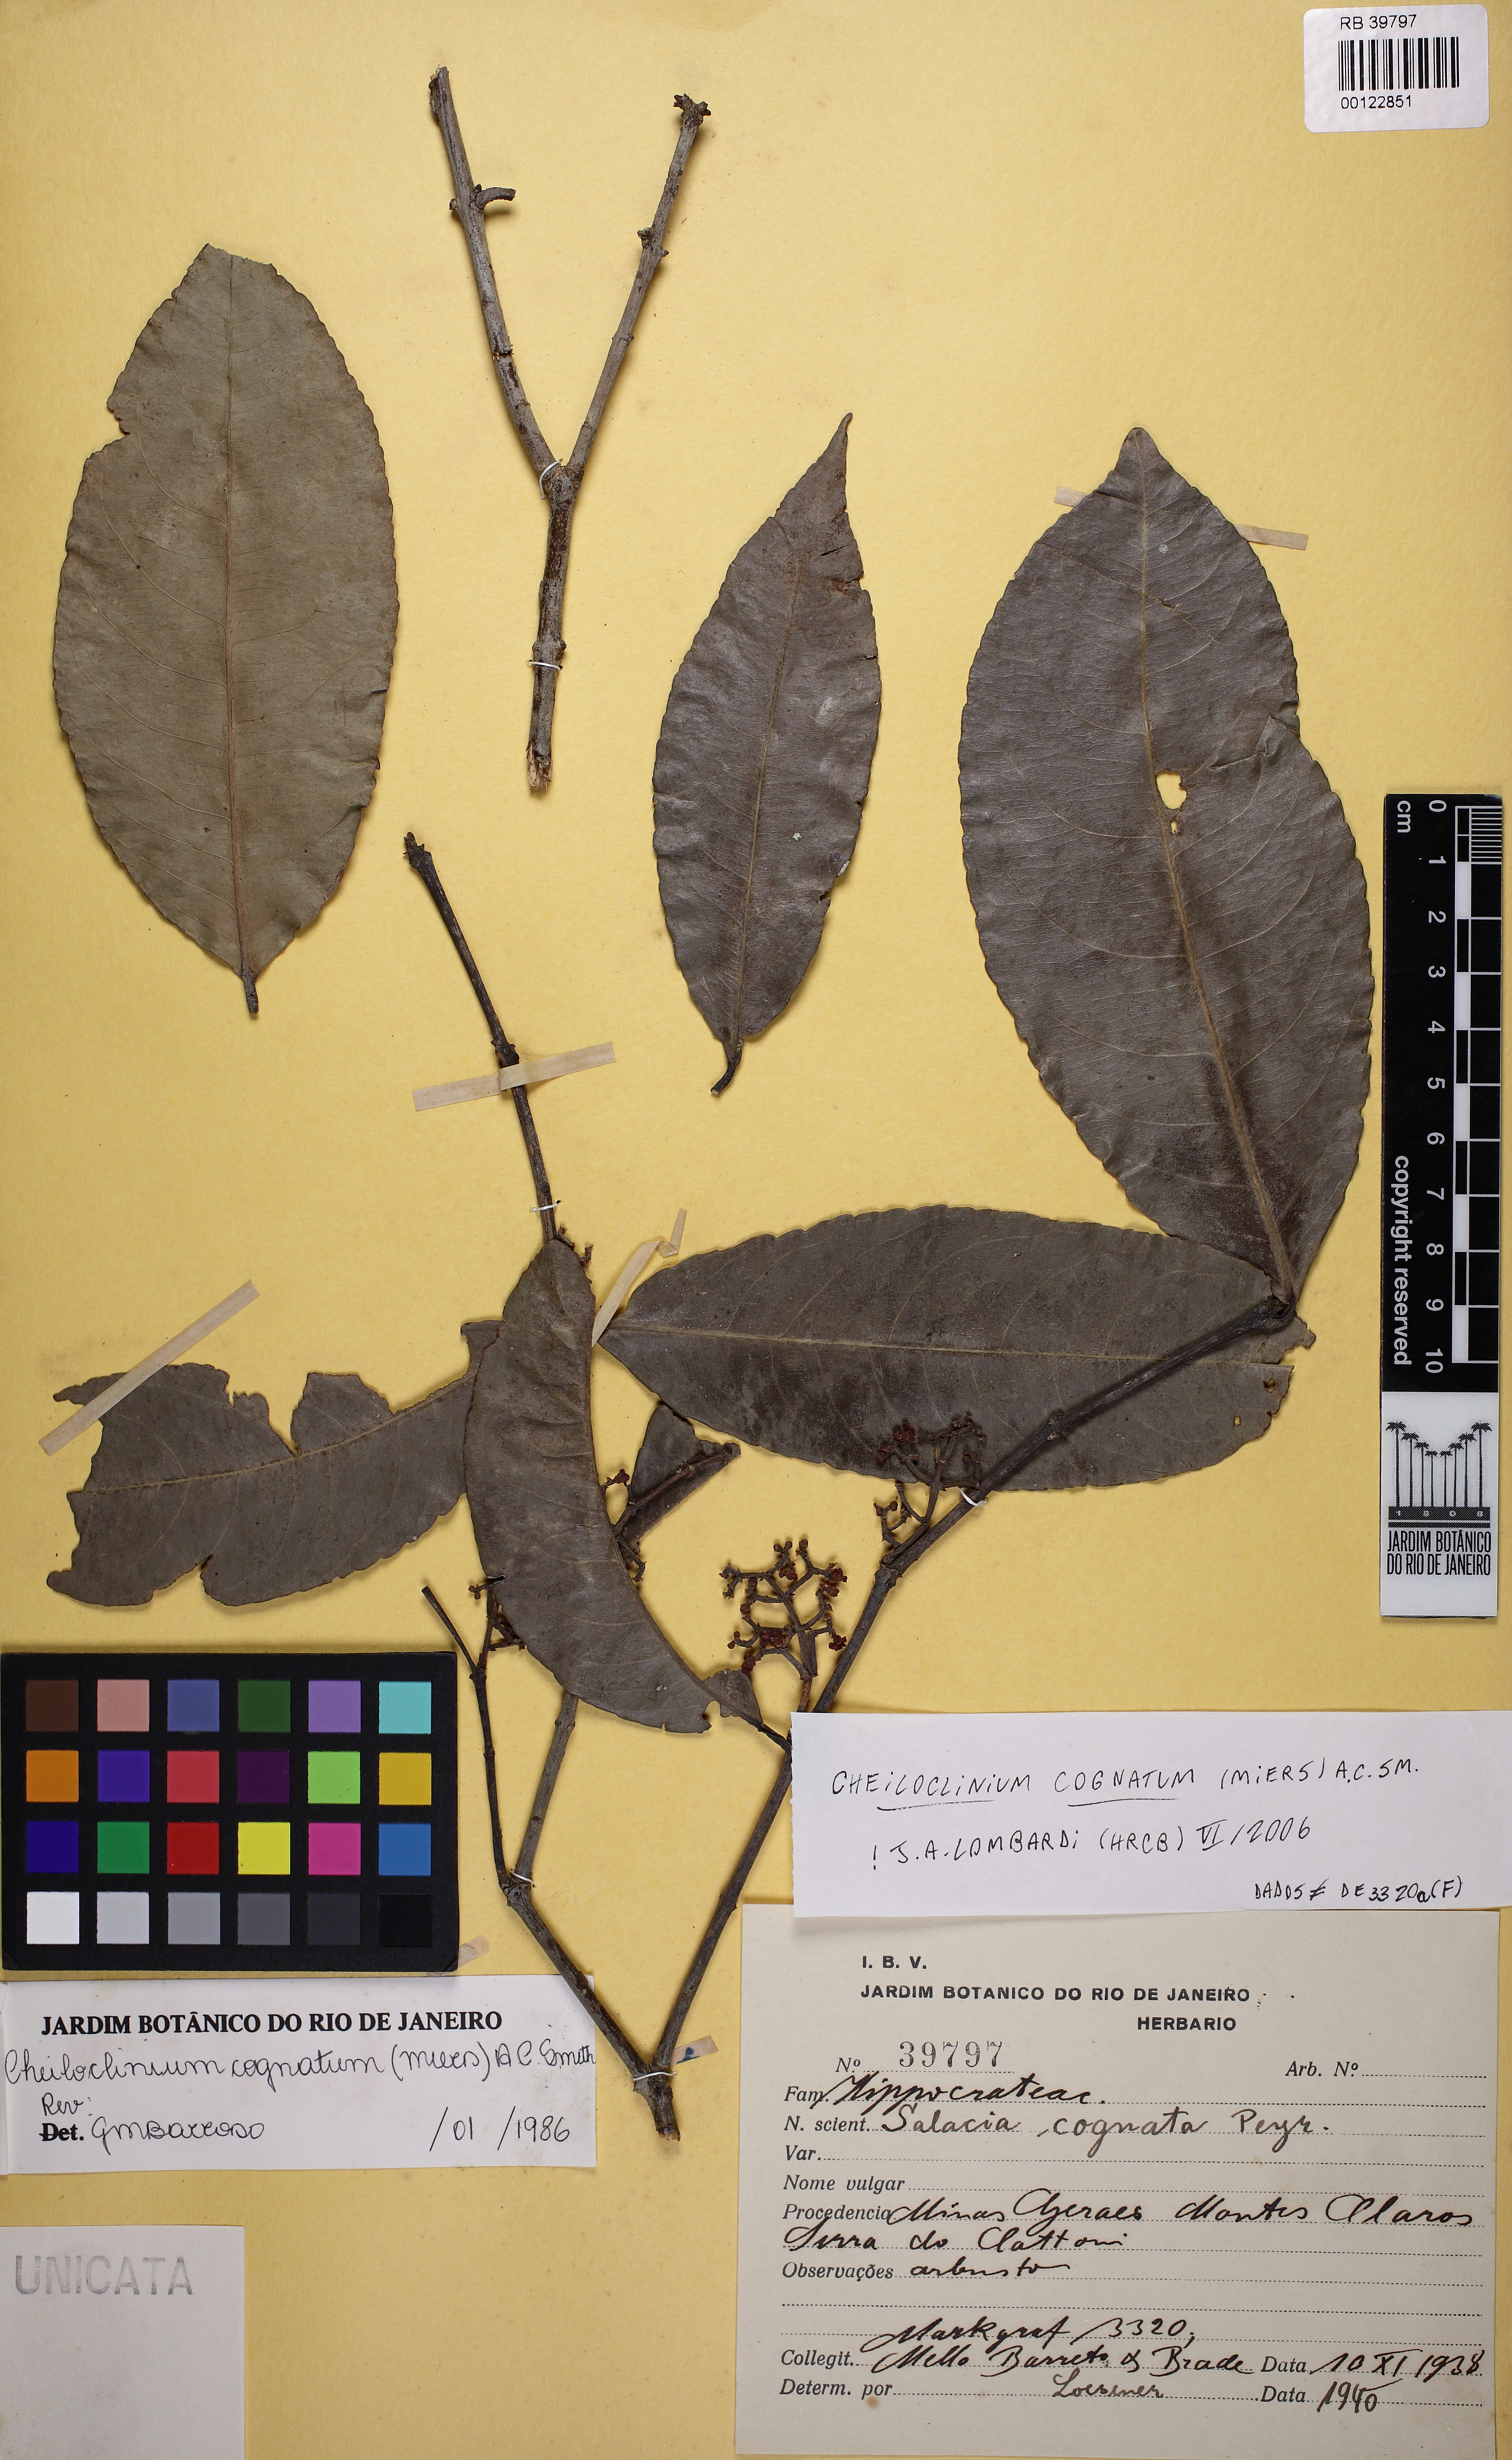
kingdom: Plantae
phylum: Tracheophyta
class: Magnoliopsida
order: Celastrales
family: Celastraceae
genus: Cheiloclinium
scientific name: Cheiloclinium cognatum
